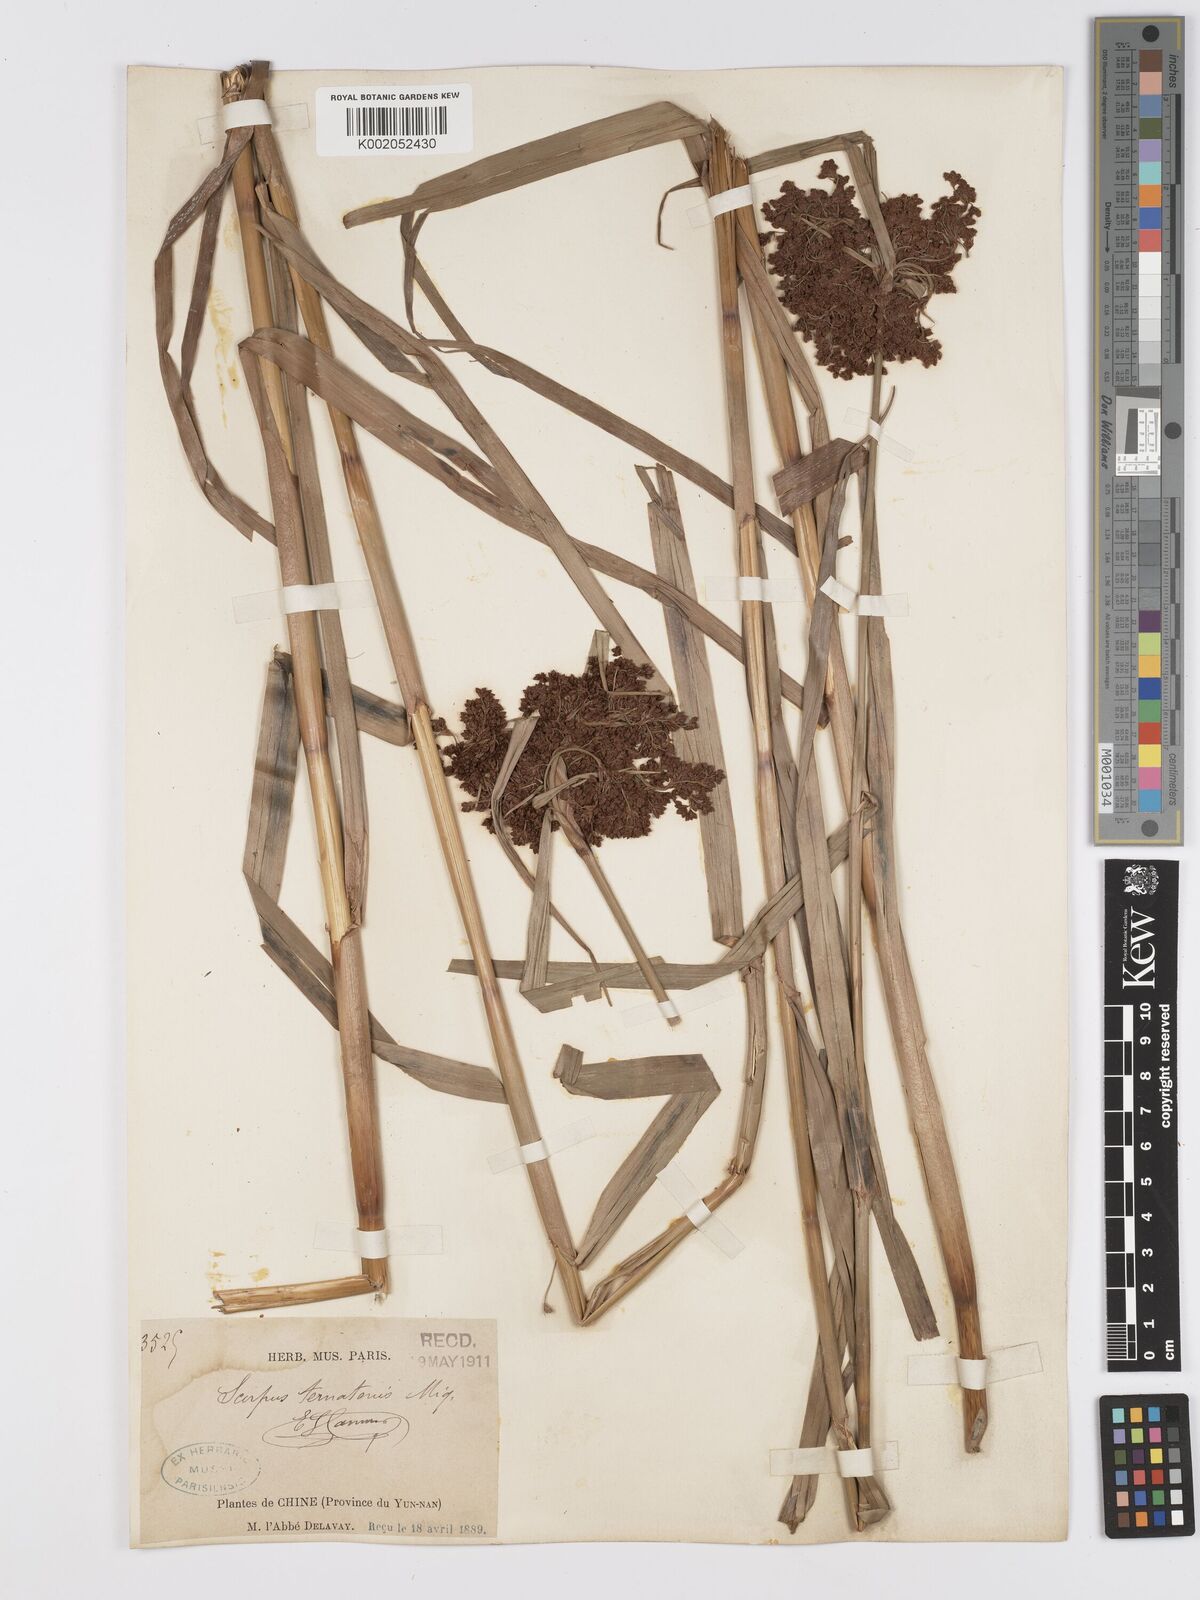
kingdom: Plantae
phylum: Tracheophyta
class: Liliopsida
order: Poales
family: Cyperaceae
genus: Scirpus
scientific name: Scirpus ternatanus
